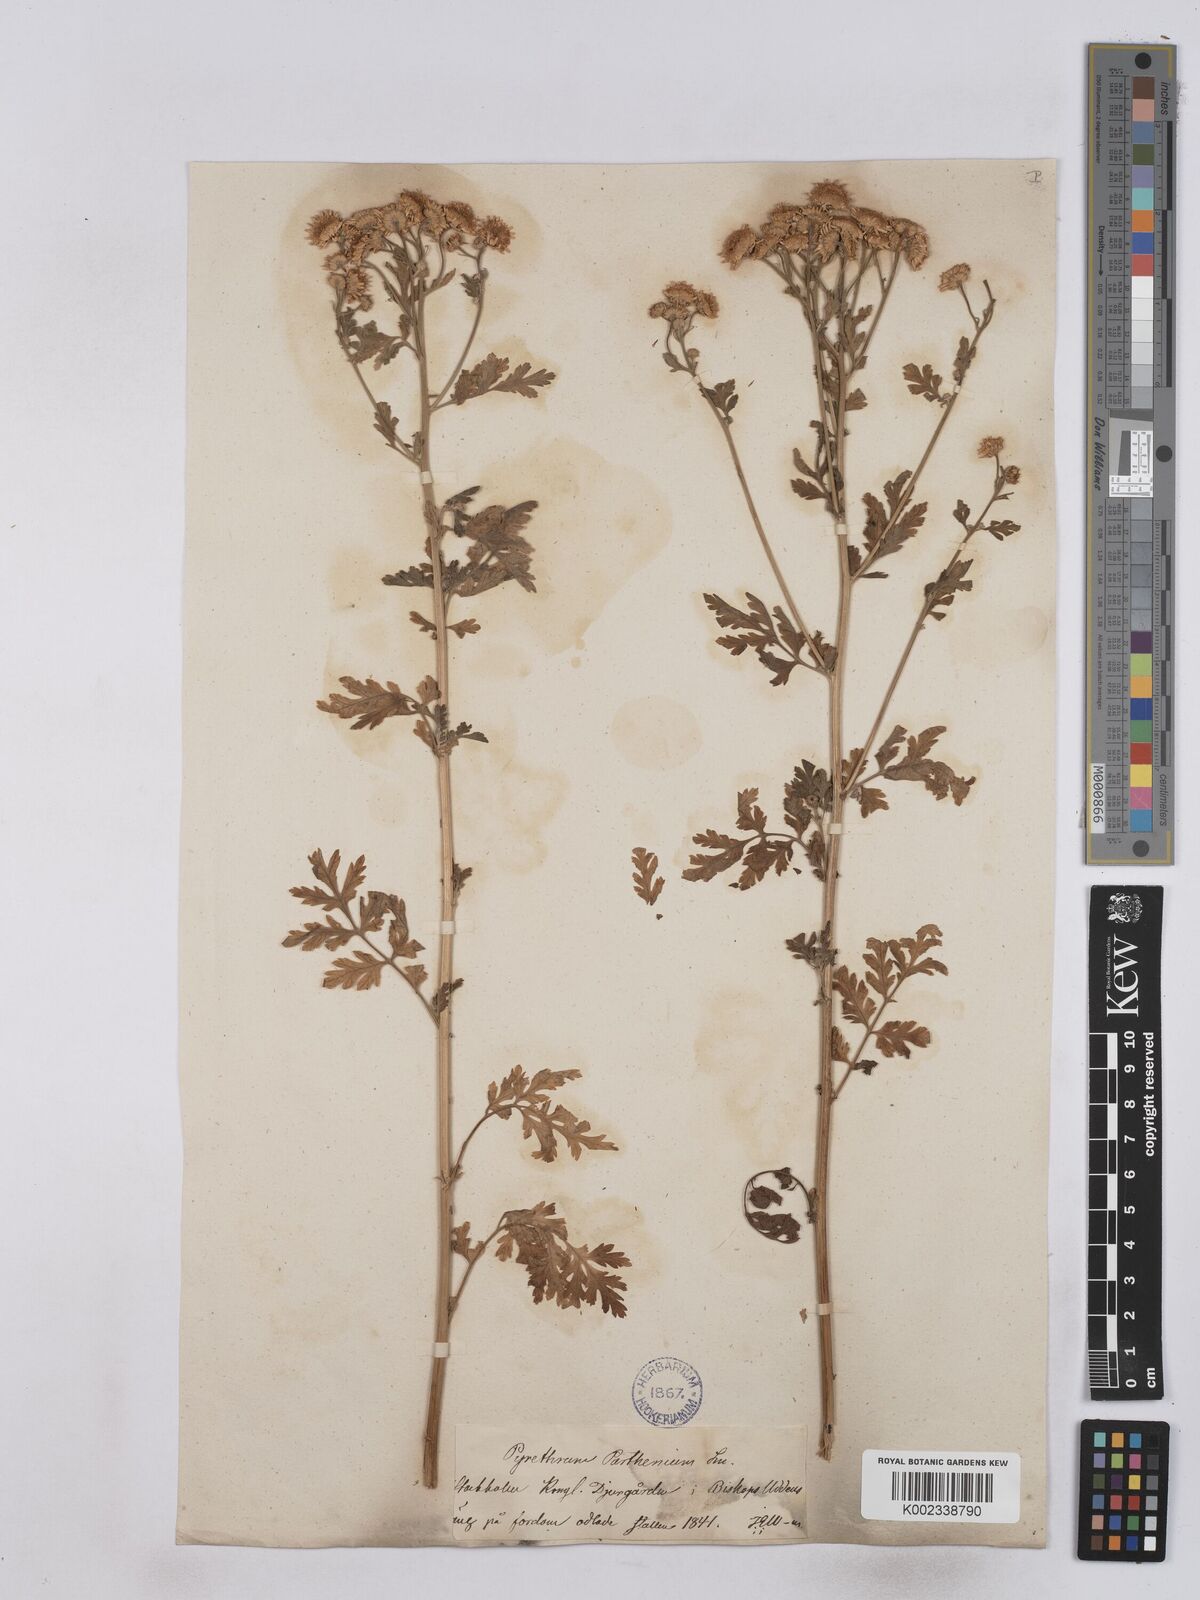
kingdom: Plantae
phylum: Tracheophyta
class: Magnoliopsida
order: Asterales
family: Asteraceae
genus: Tanacetum
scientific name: Tanacetum parthenium
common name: Feverfew
